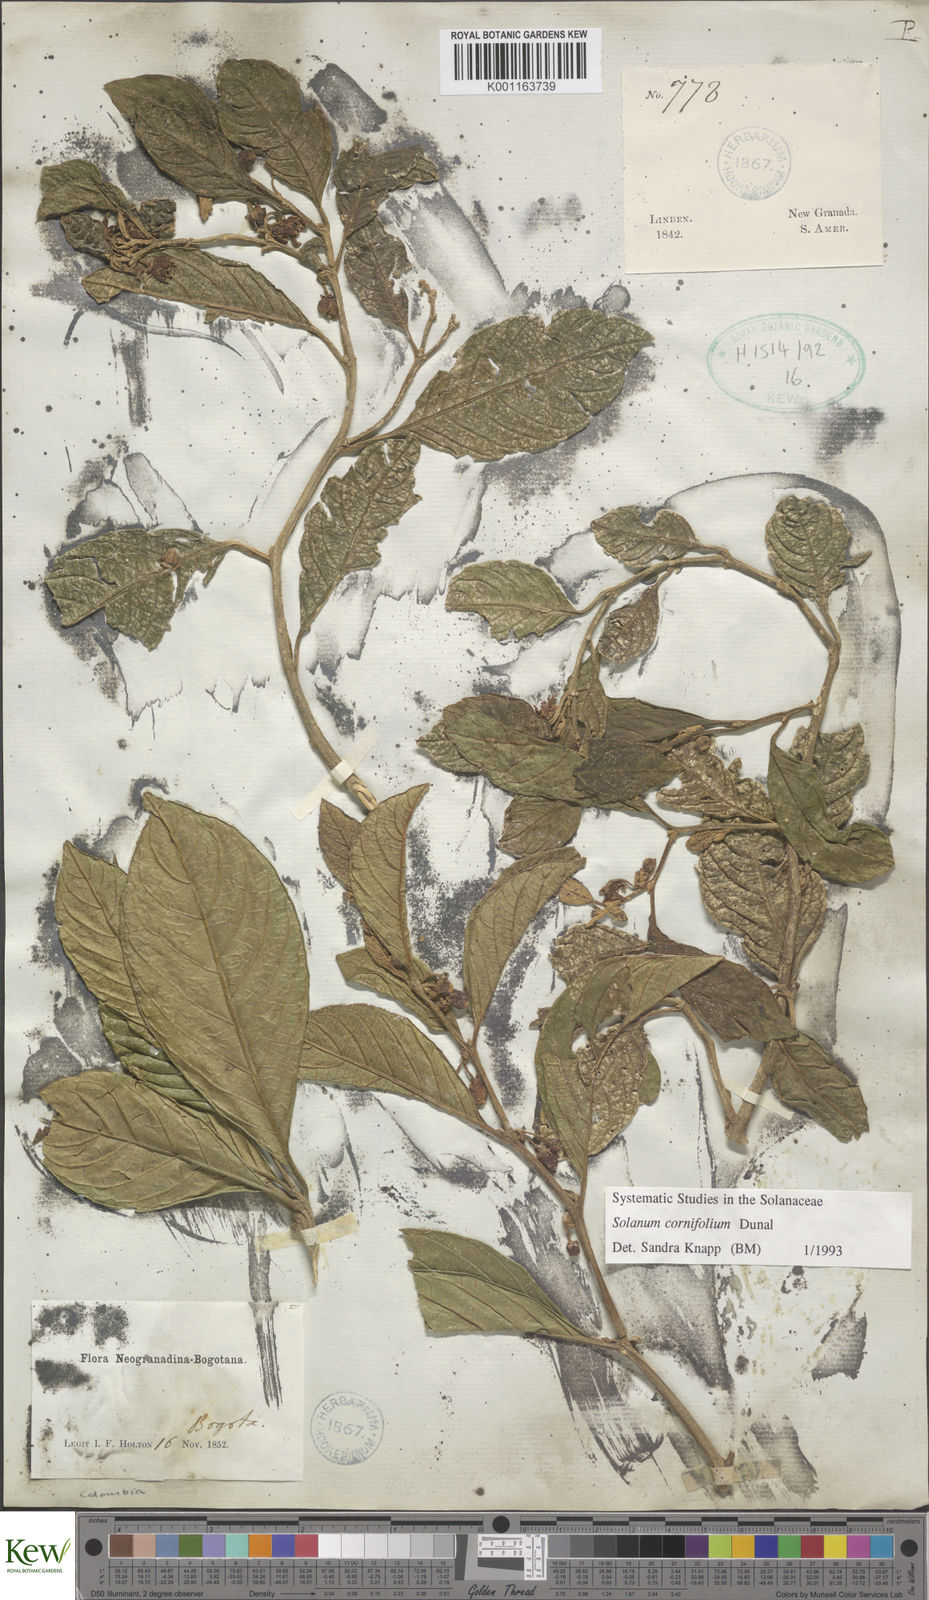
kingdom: Plantae
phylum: Tracheophyta
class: Magnoliopsida
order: Solanales
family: Solanaceae
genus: Solanum
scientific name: Solanum cornifolium
